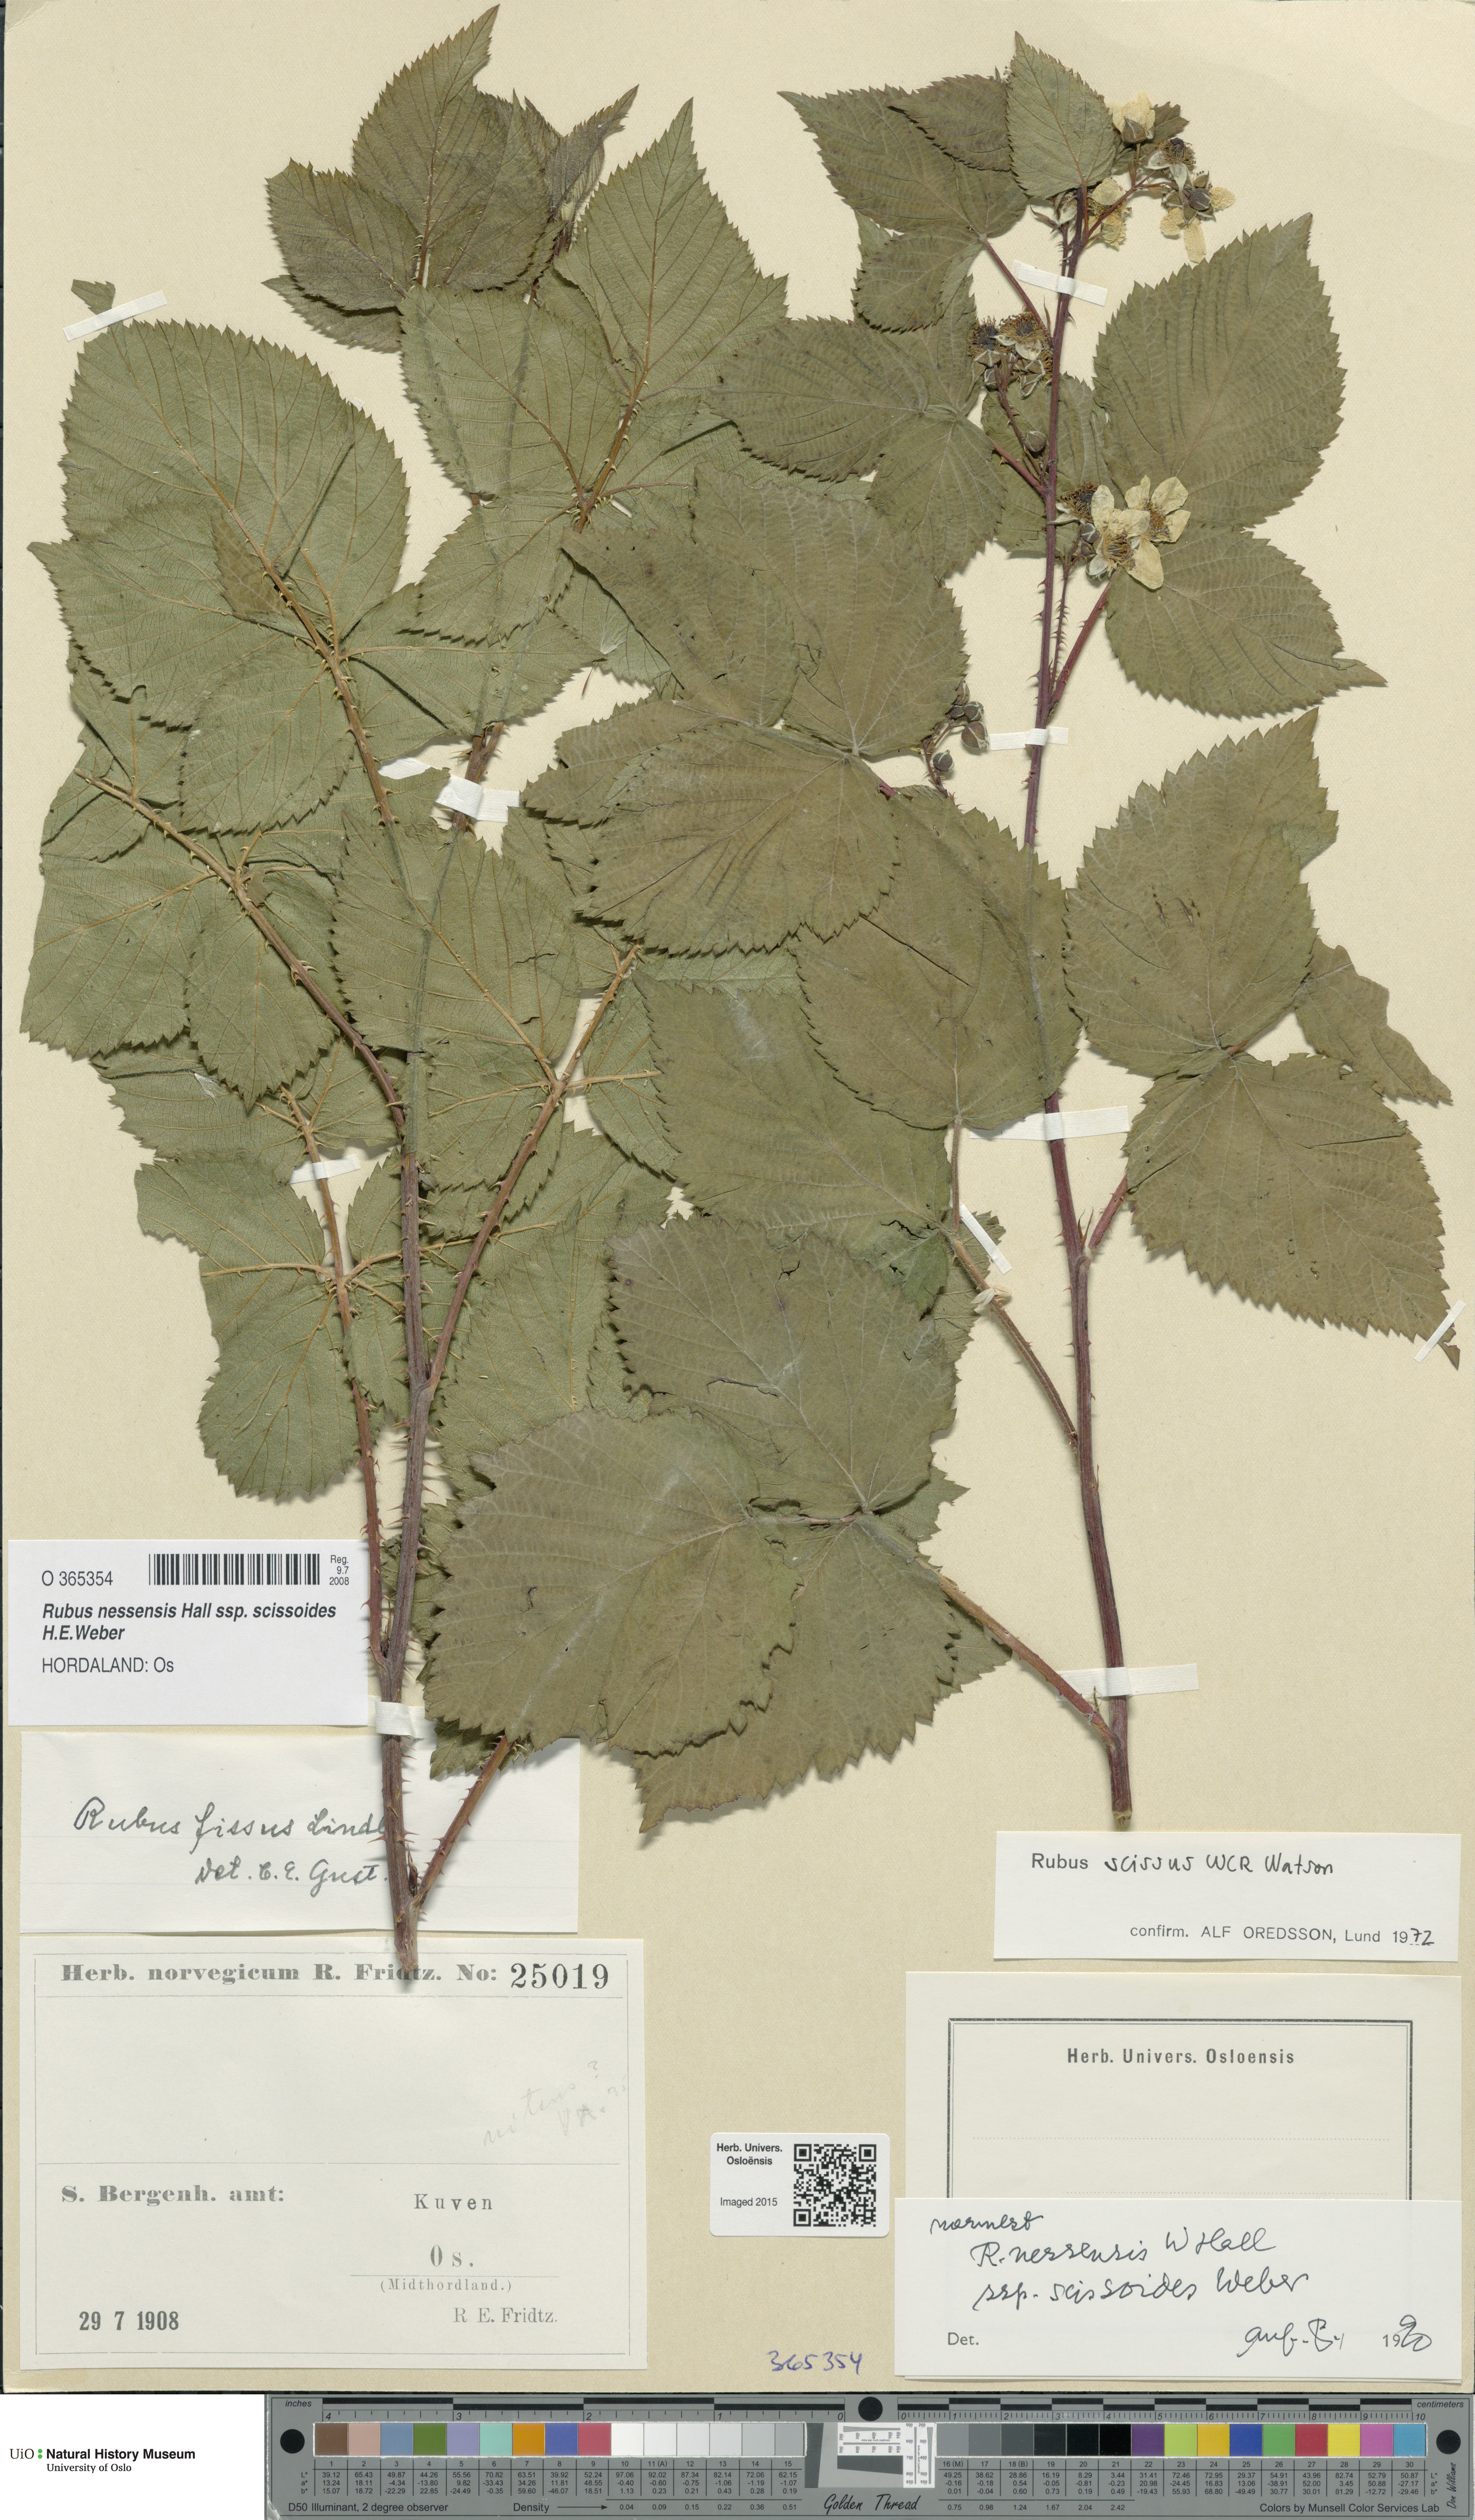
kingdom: Plantae
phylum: Tracheophyta
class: Magnoliopsida
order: Rosales
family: Rosaceae
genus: Rubus
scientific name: Rubus scissus
